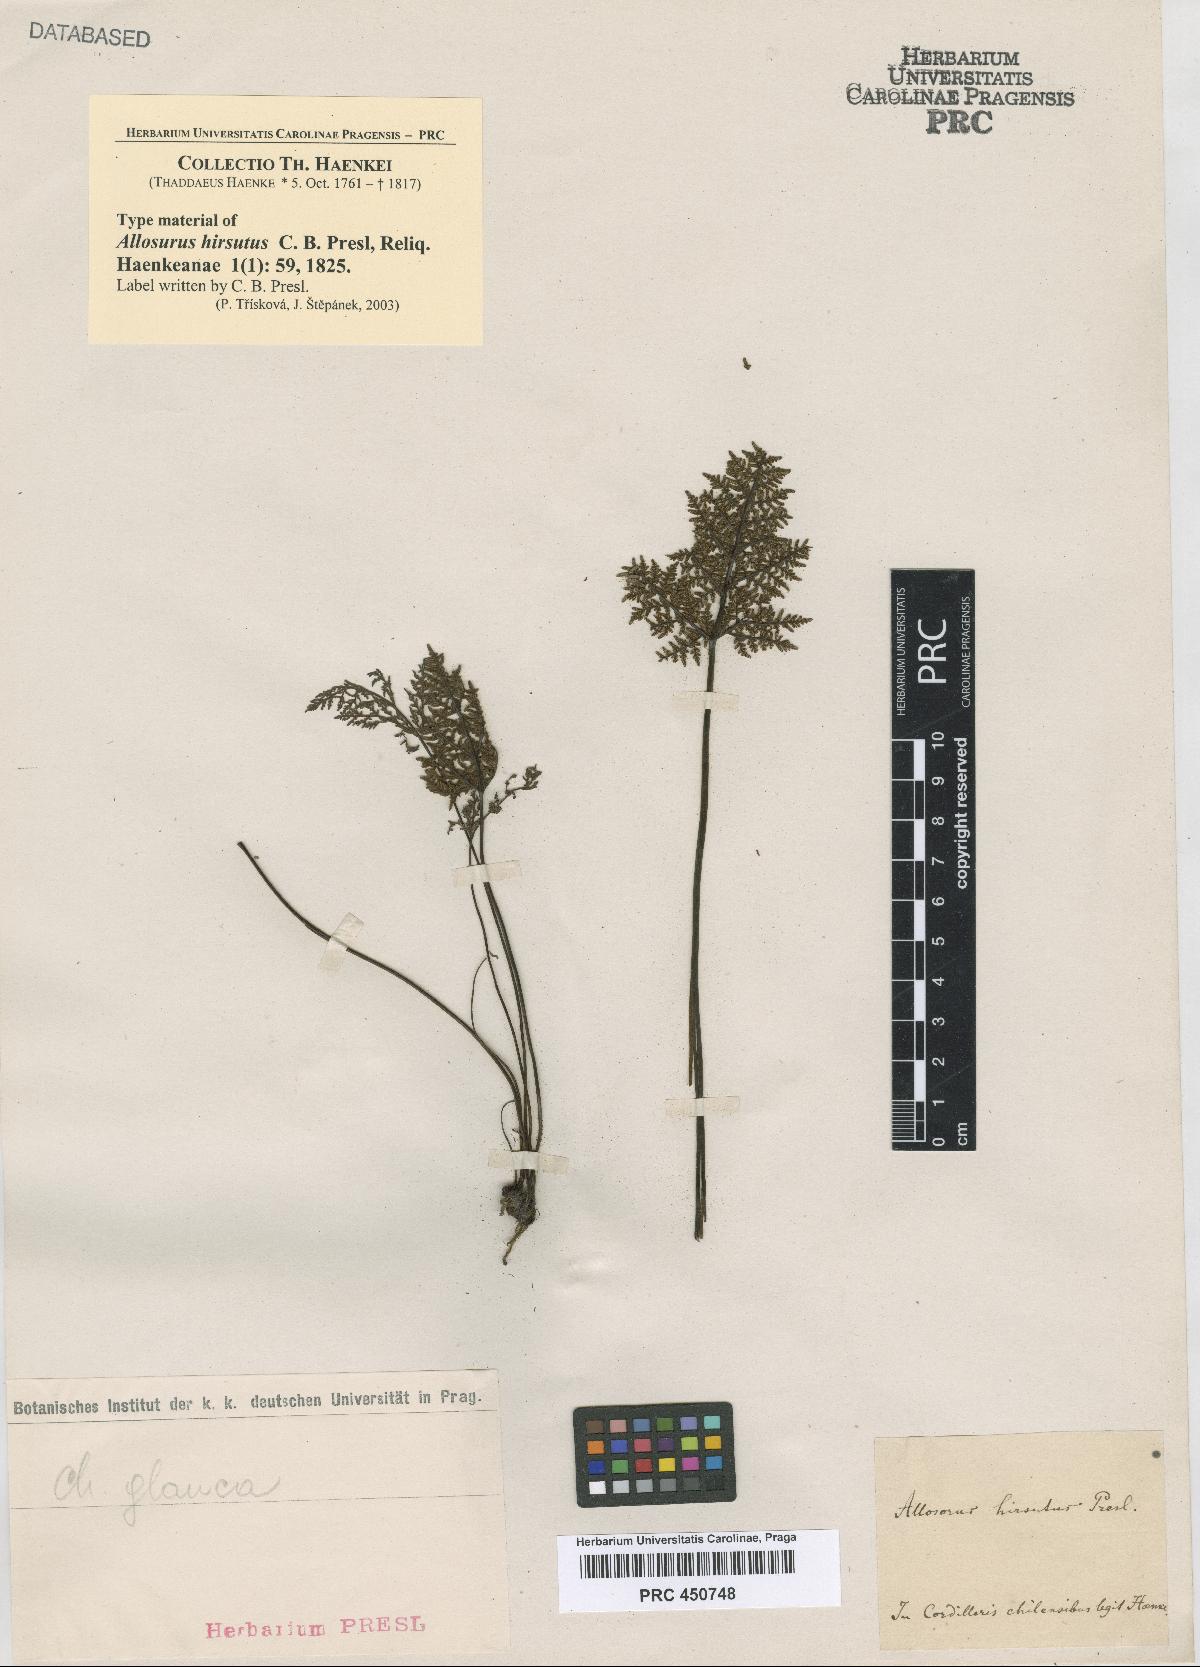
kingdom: Plantae
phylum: Tracheophyta
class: Polypodiopsida
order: Polypodiales
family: Adiantaceae
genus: Allosurus
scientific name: Allosurus
